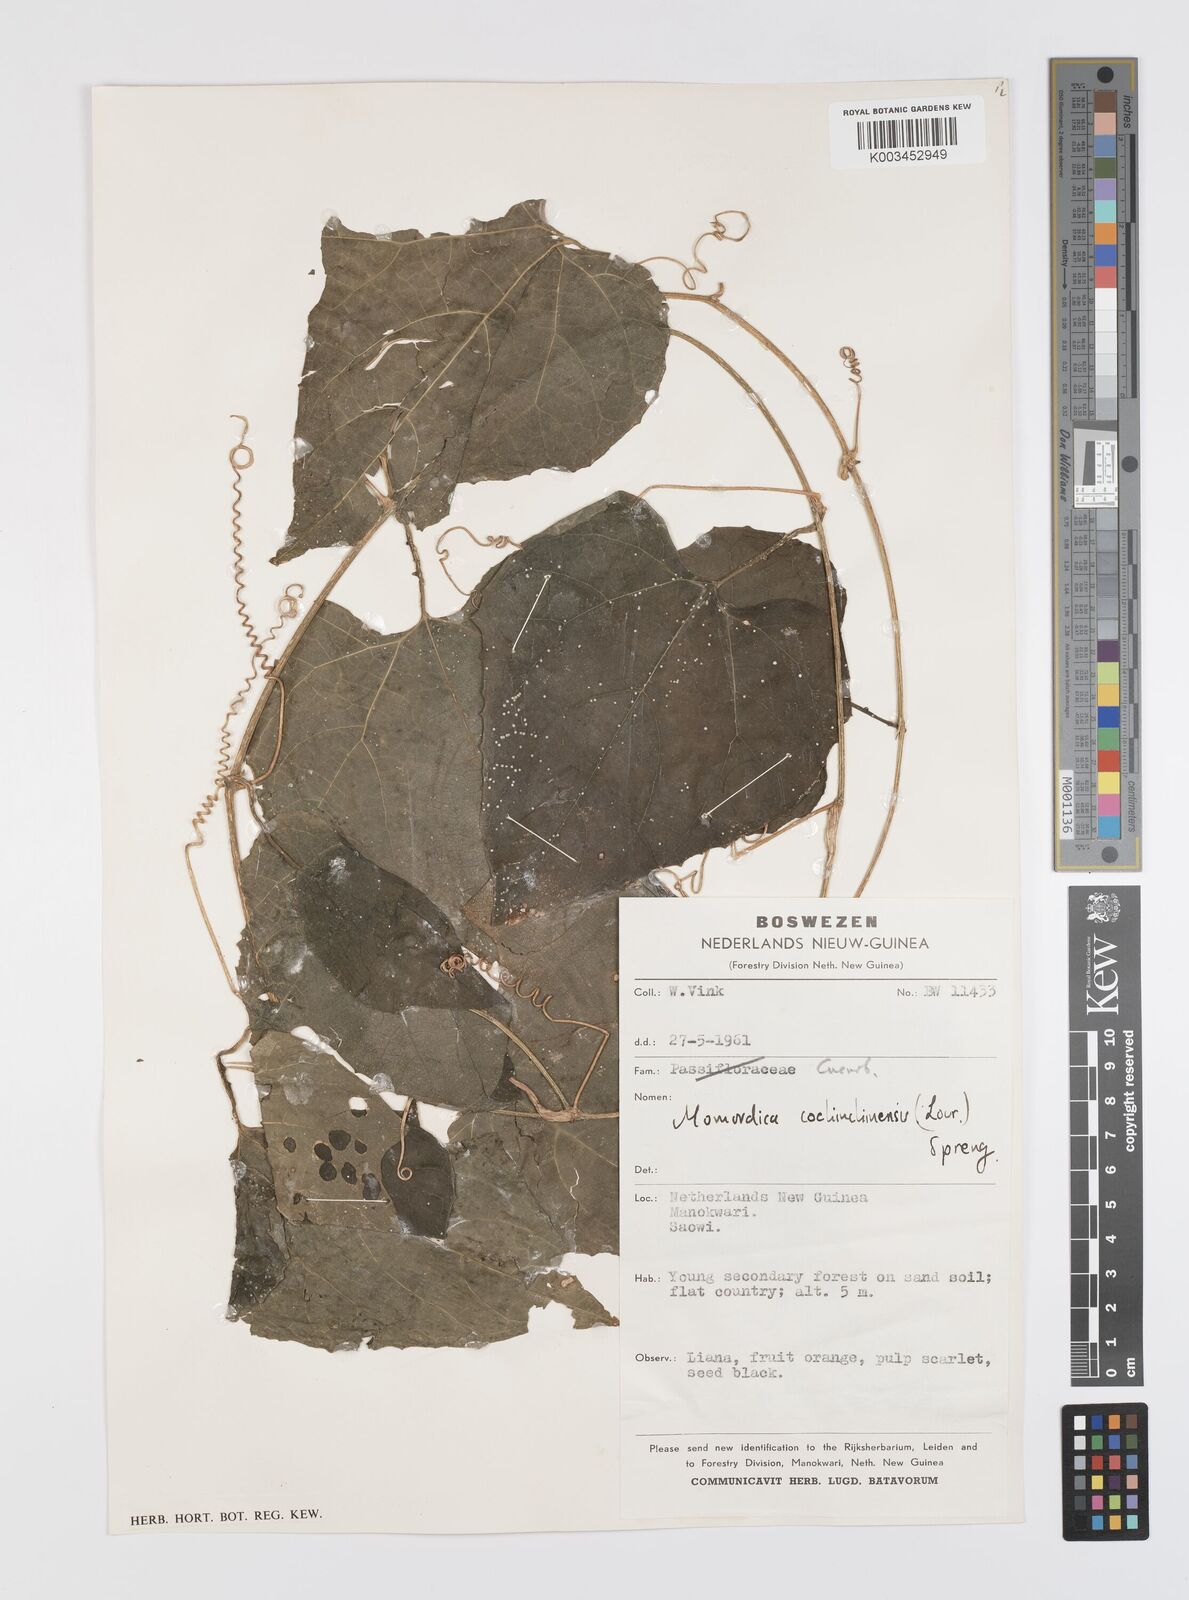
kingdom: Plantae
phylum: Tracheophyta
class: Magnoliopsida
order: Cucurbitales
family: Cucurbitaceae
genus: Momordica
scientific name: Momordica cochinchinensis
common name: Chinese bitter-cucumber
